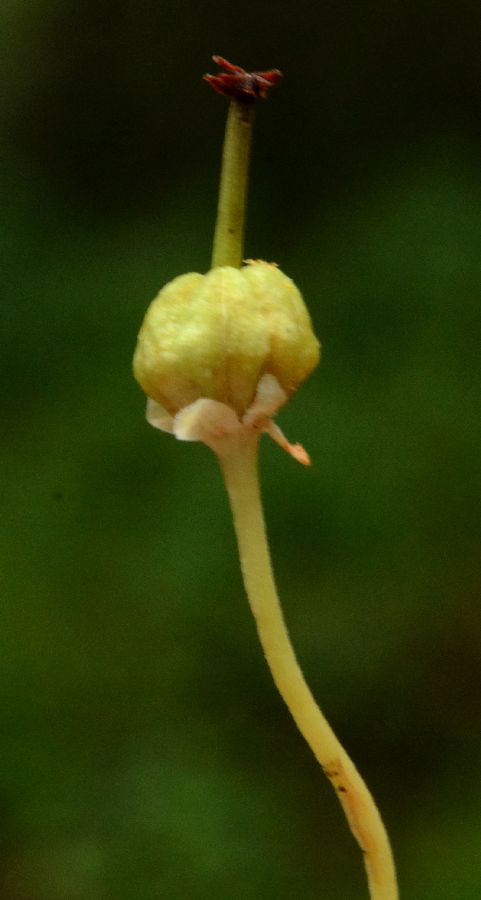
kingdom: Plantae
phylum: Tracheophyta
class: Magnoliopsida
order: Ericales
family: Ericaceae
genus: Moneses
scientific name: Moneses uniflora
